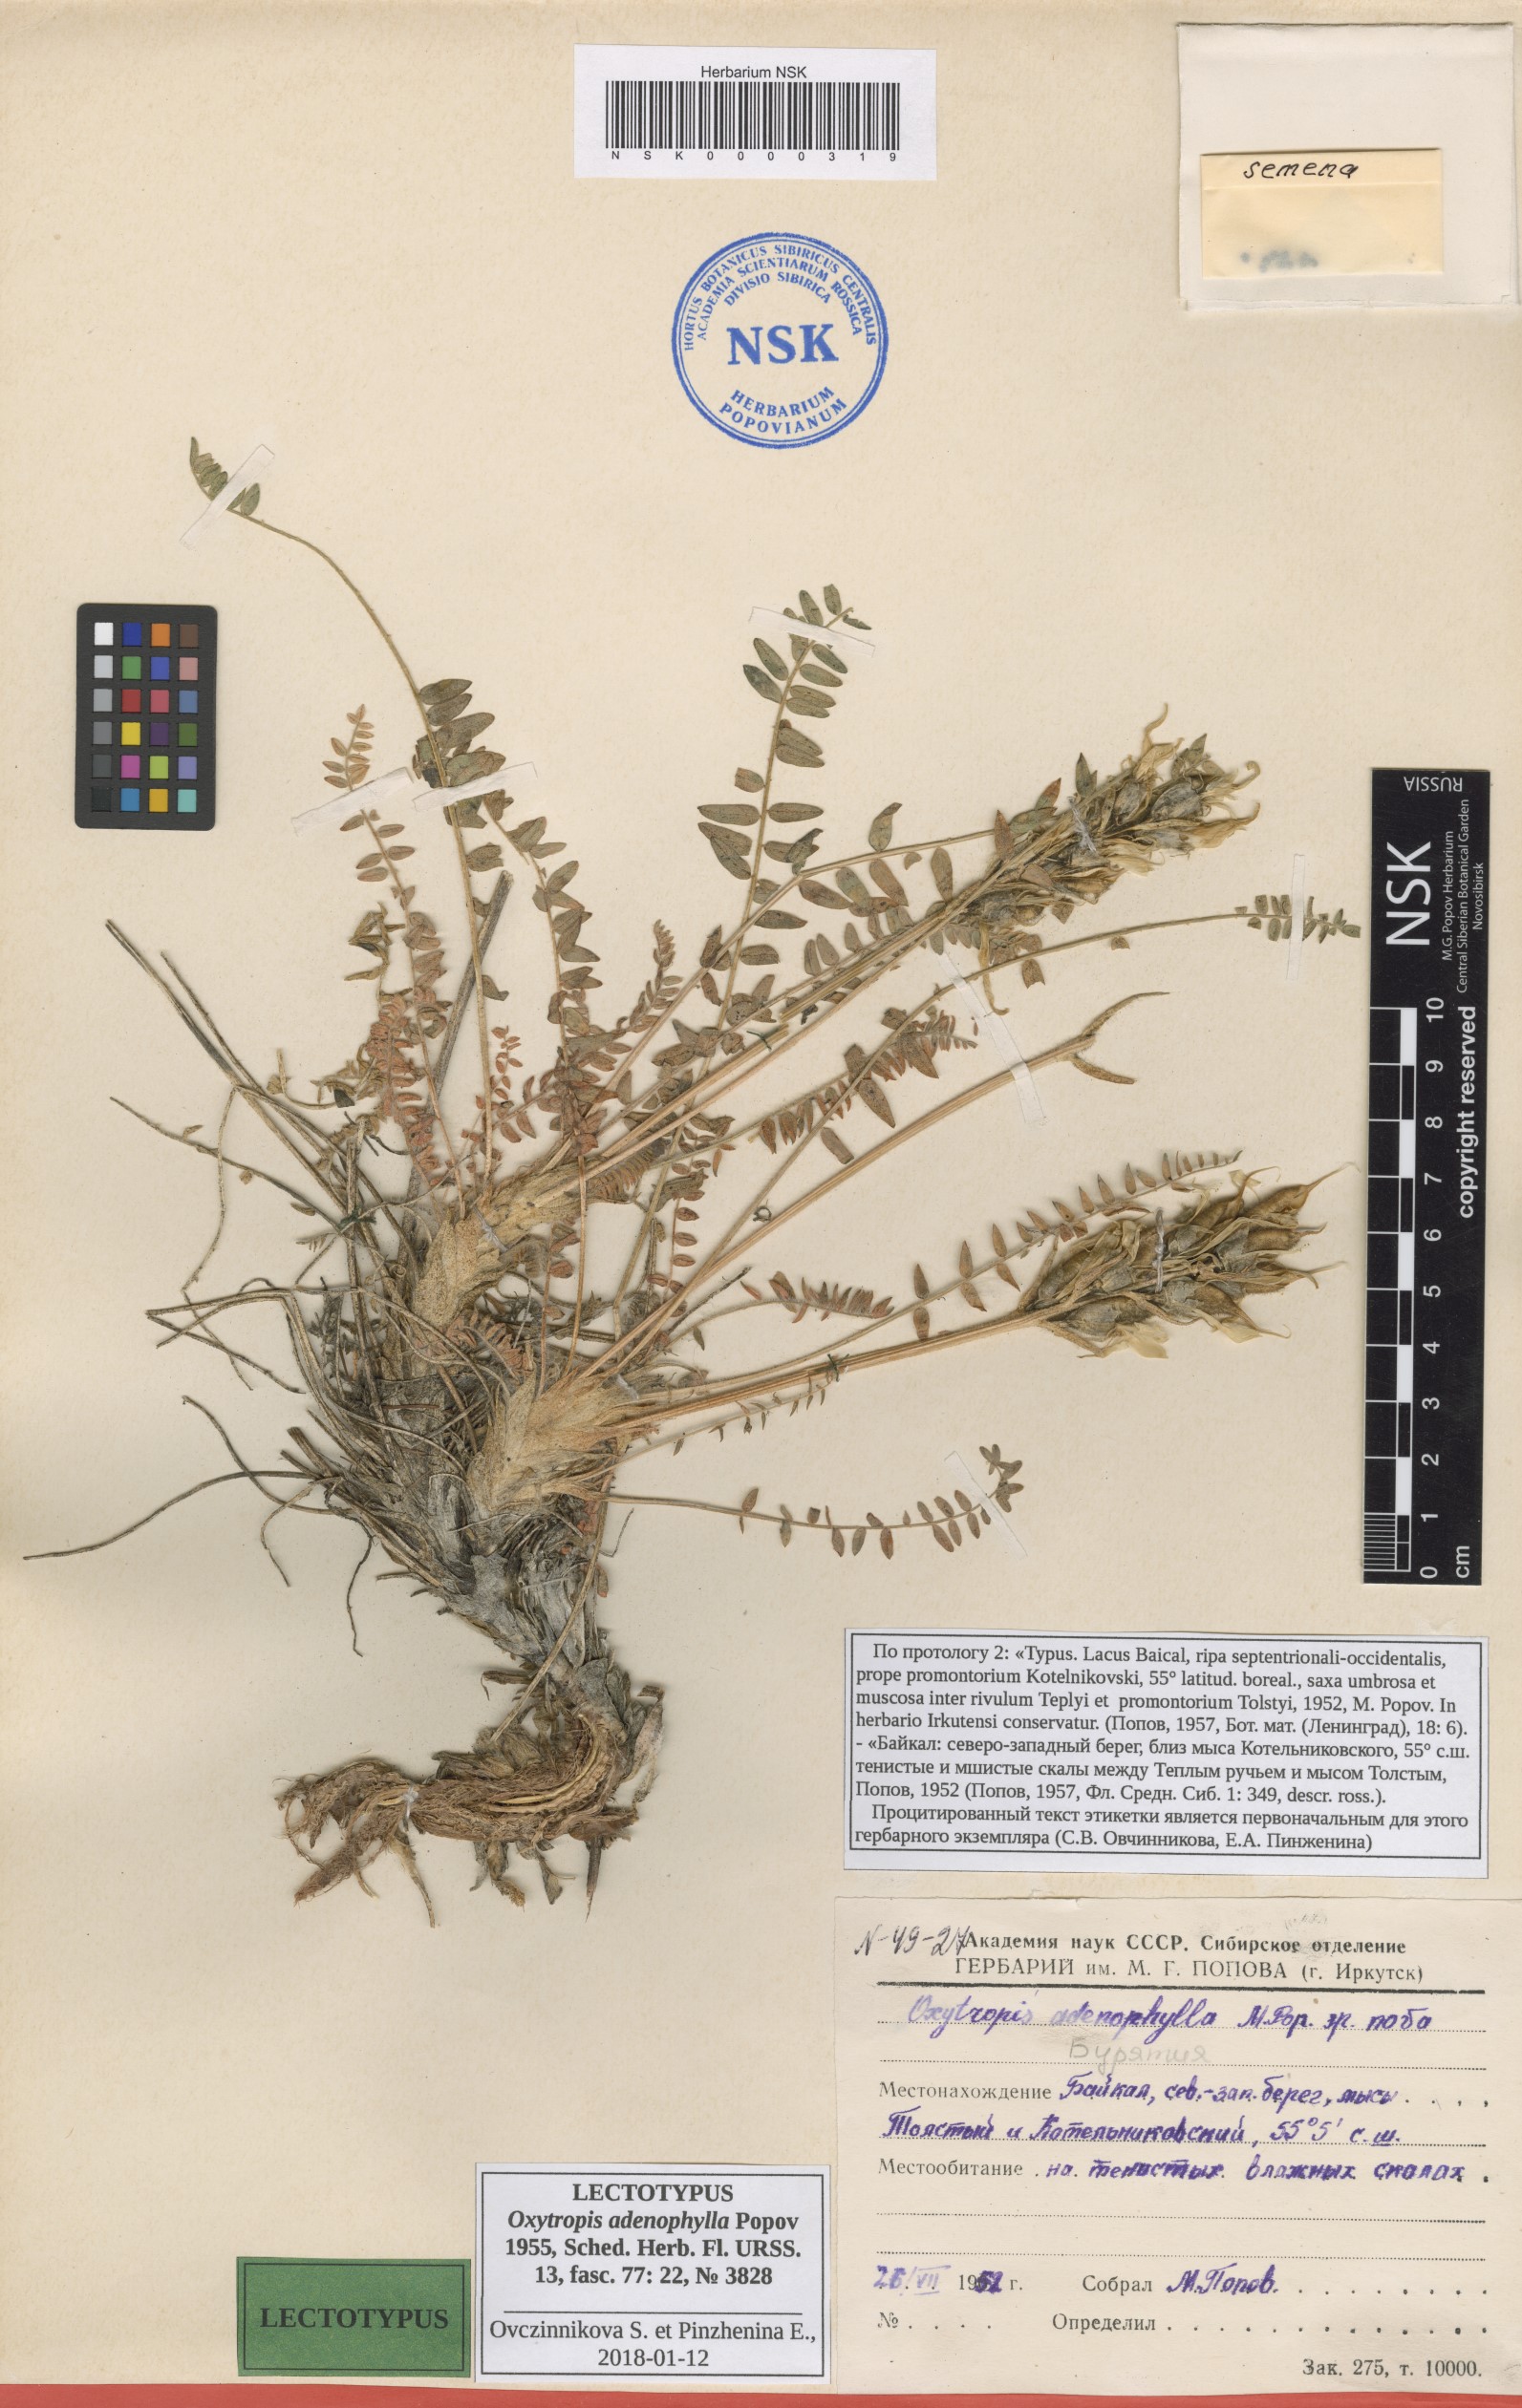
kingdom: Plantae
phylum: Tracheophyta
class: Magnoliopsida
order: Fabales
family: Fabaceae
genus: Oxytropis
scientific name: Oxytropis adenophylla
